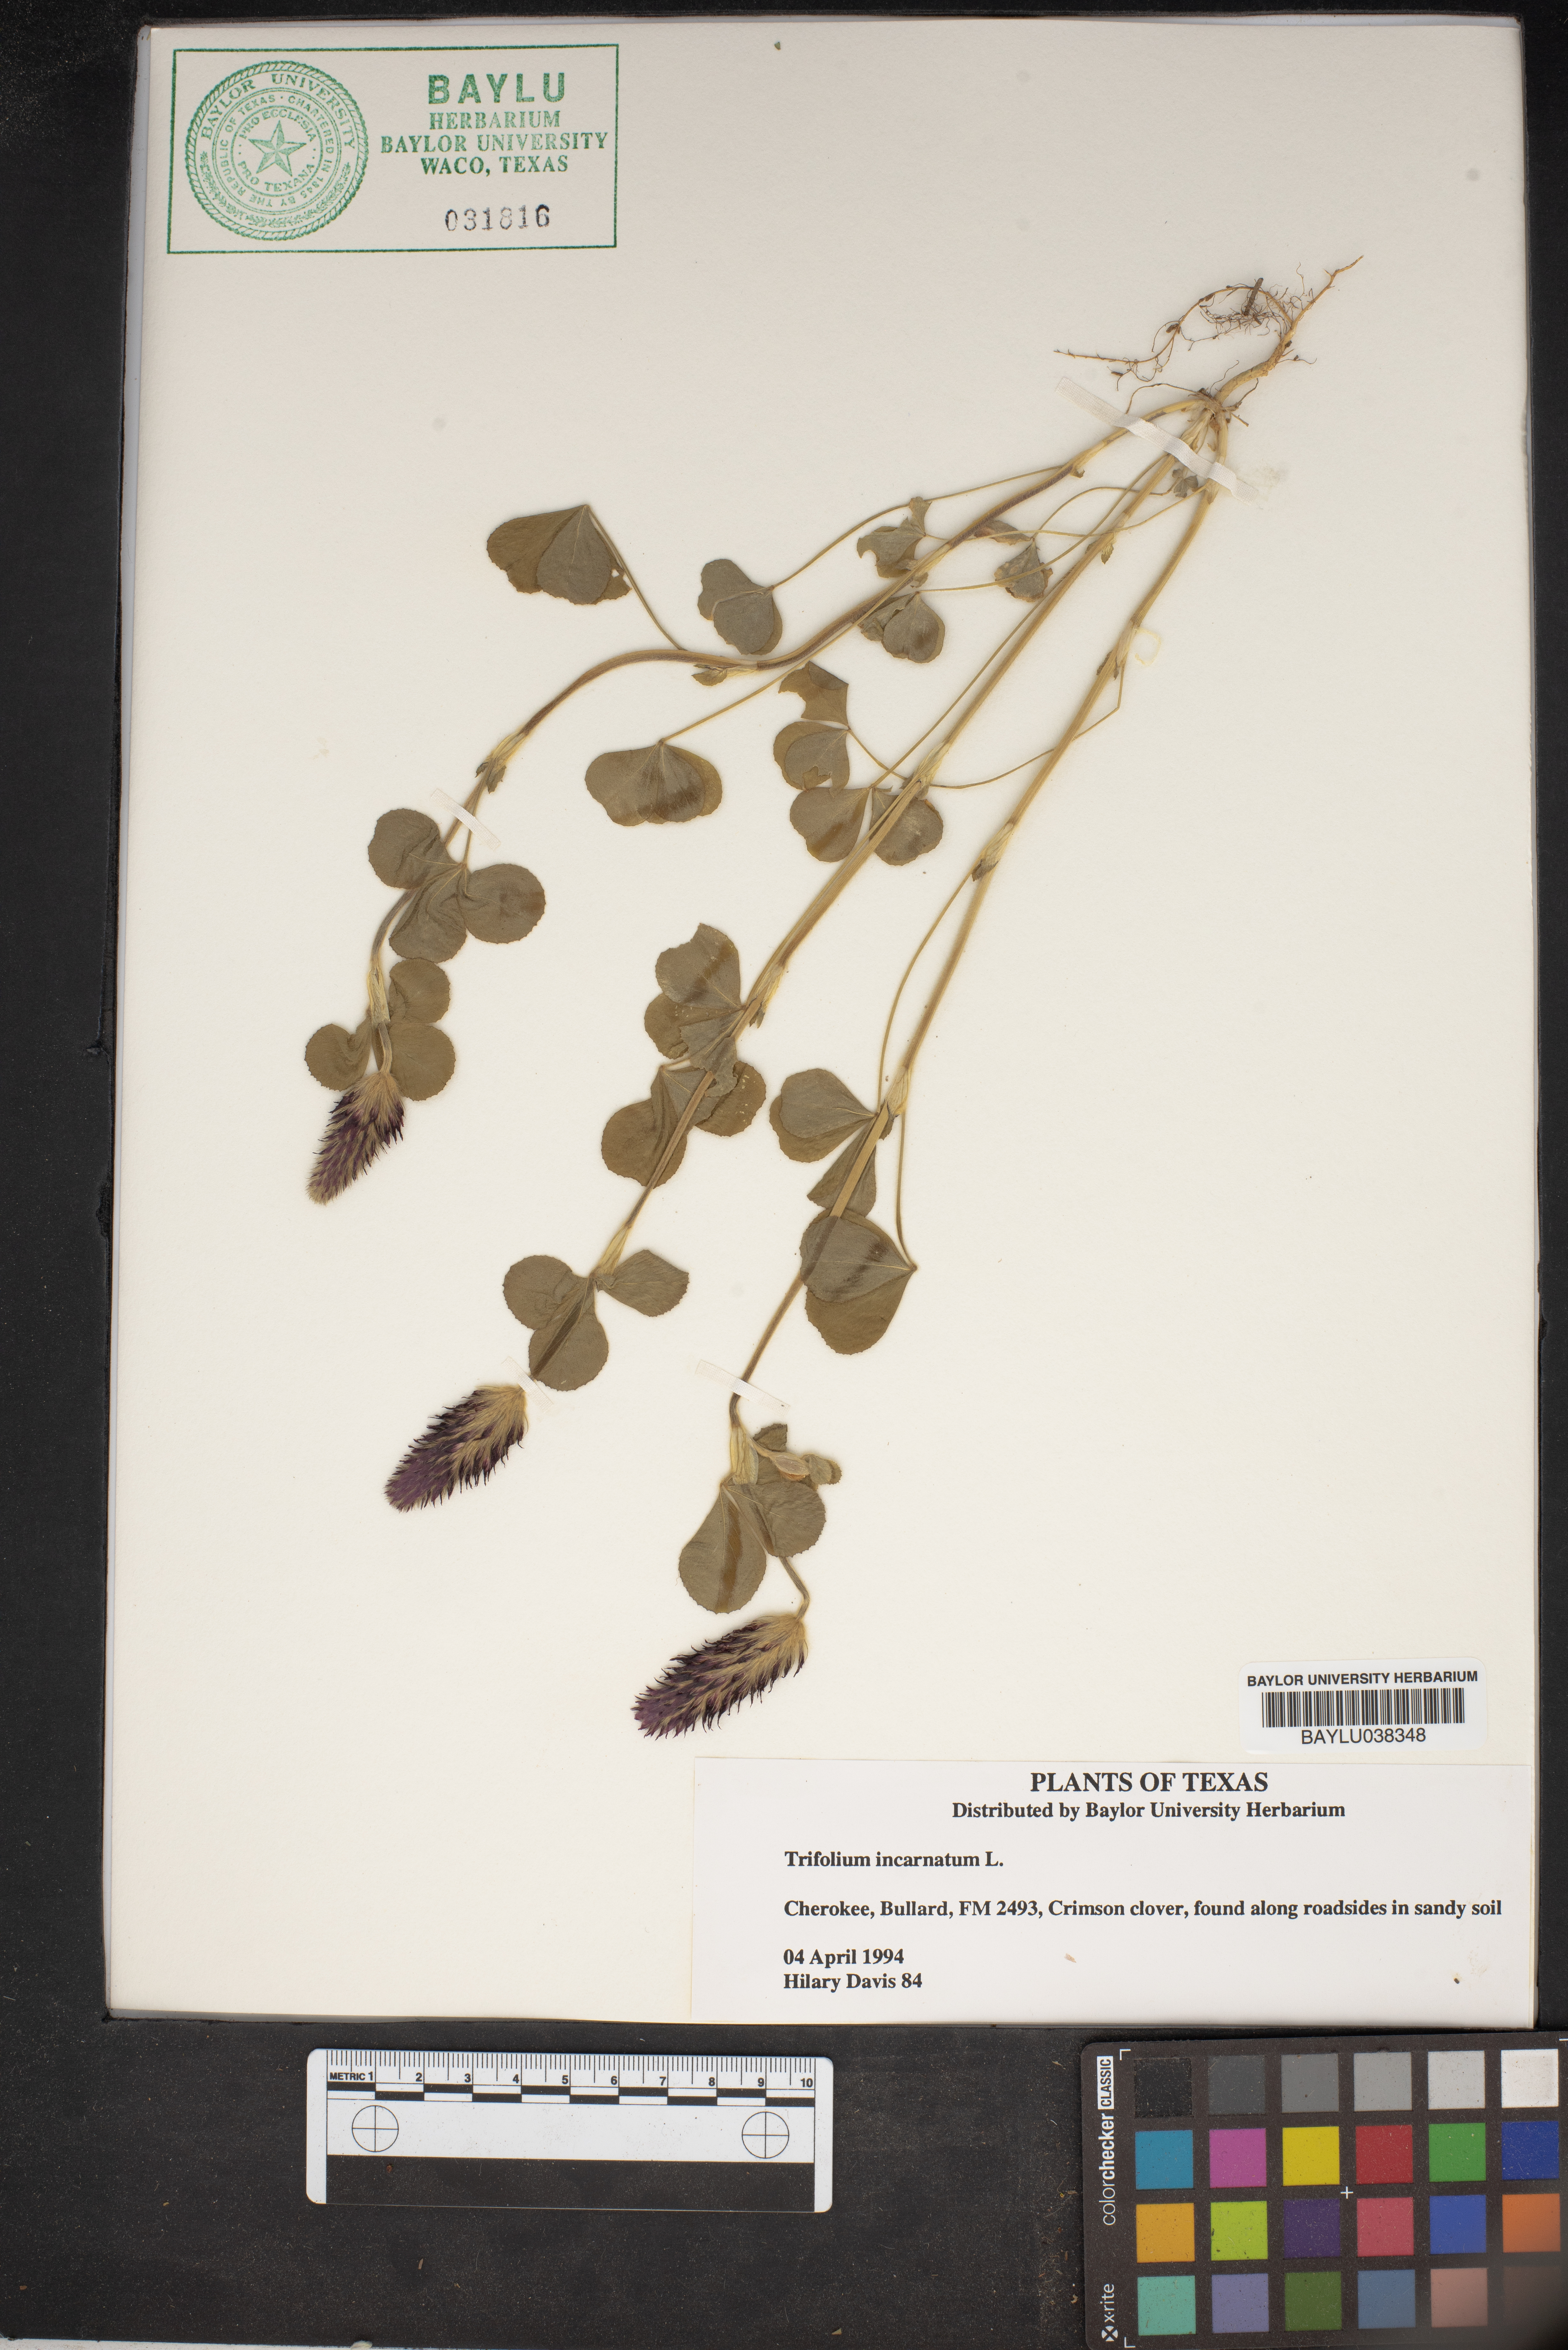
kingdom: Plantae
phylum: Tracheophyta
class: Magnoliopsida
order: Fabales
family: Fabaceae
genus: Trifolium
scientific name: Trifolium incarnatum
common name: Crimson clover
